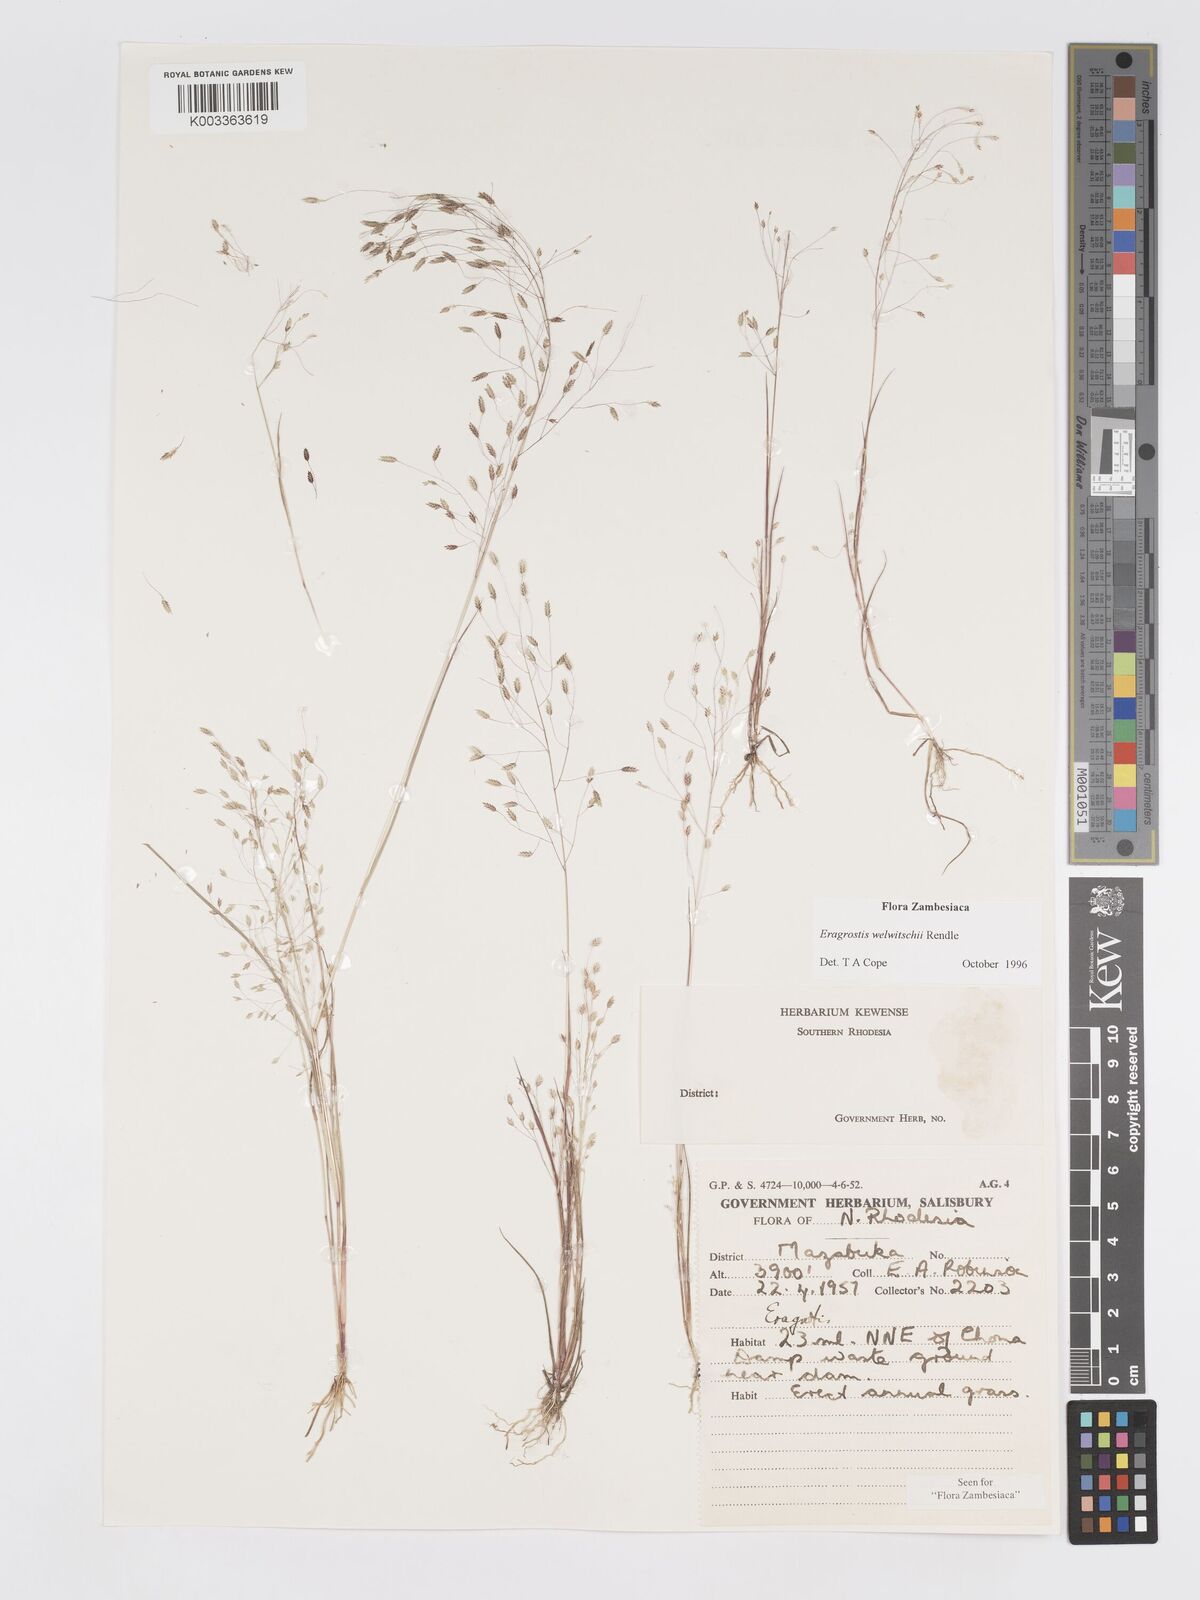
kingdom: Plantae
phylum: Tracheophyta
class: Liliopsida
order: Poales
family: Poaceae
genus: Eragrostis
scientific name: Eragrostis welwitschii
